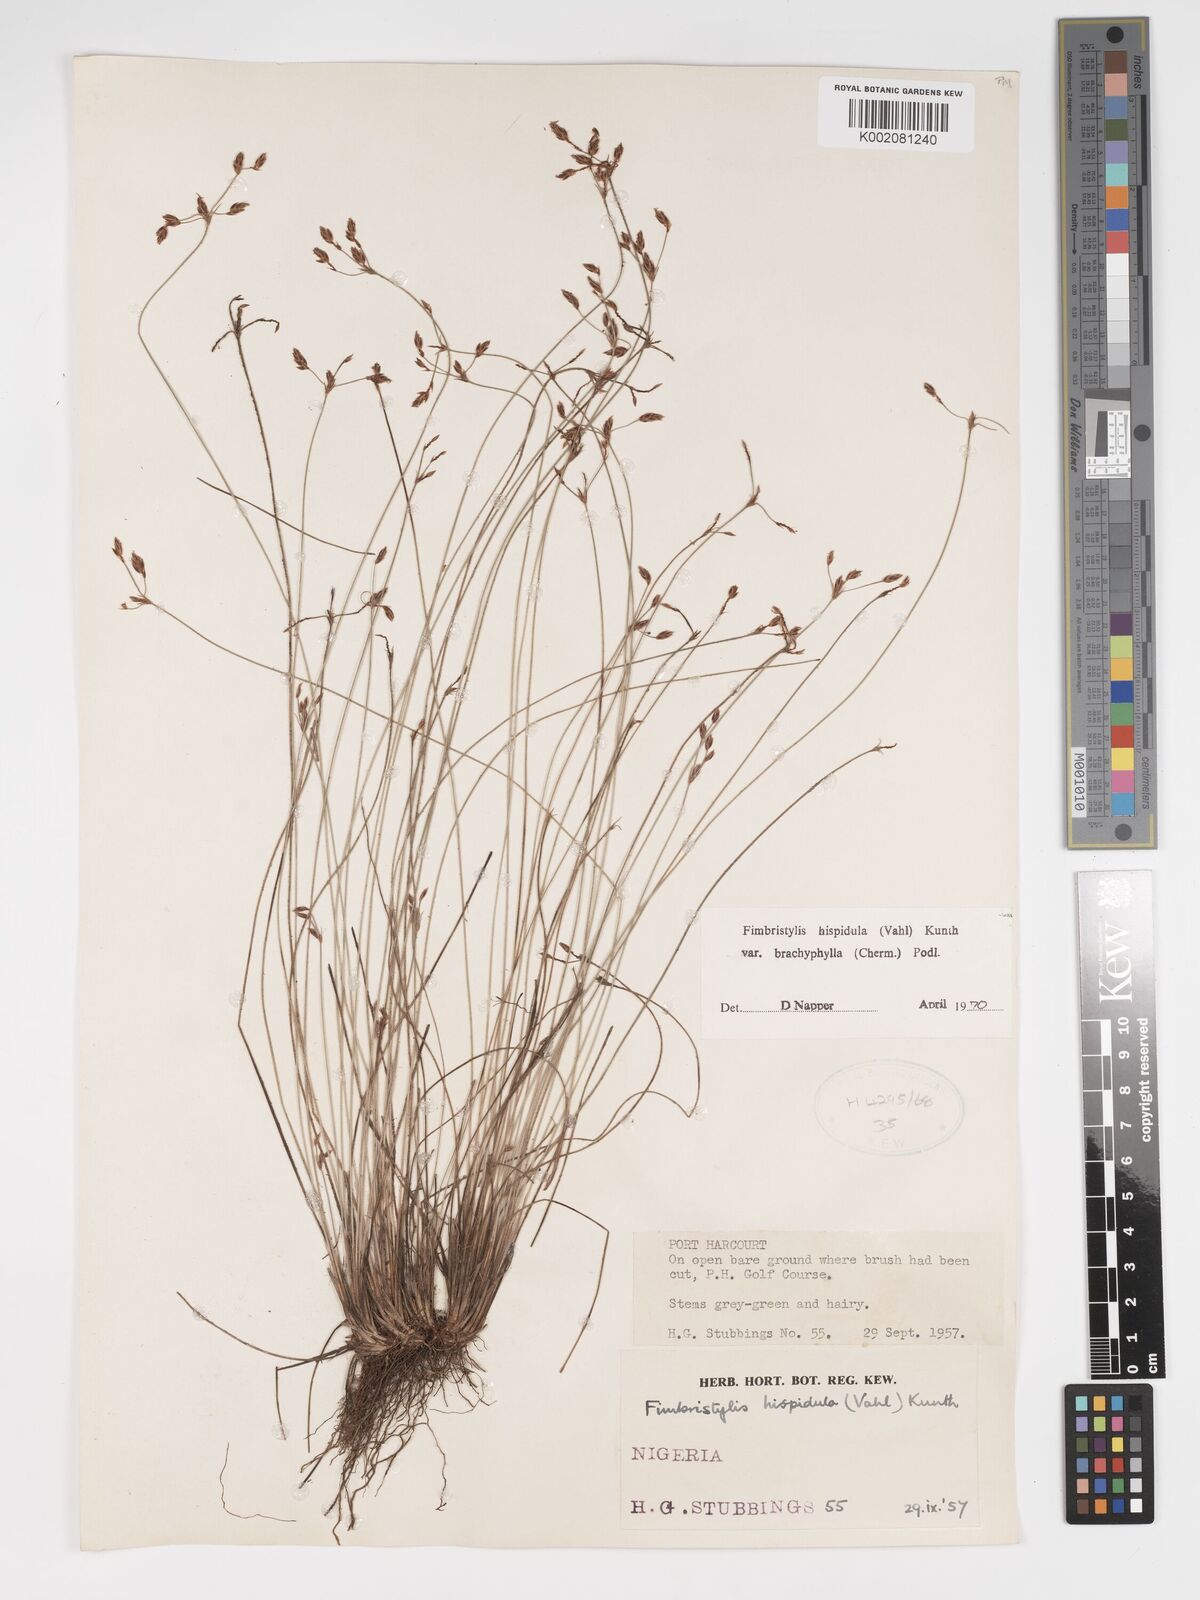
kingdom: Plantae
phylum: Tracheophyta
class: Liliopsida
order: Poales
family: Cyperaceae
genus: Bulbostylis
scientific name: Bulbostylis hispidula
